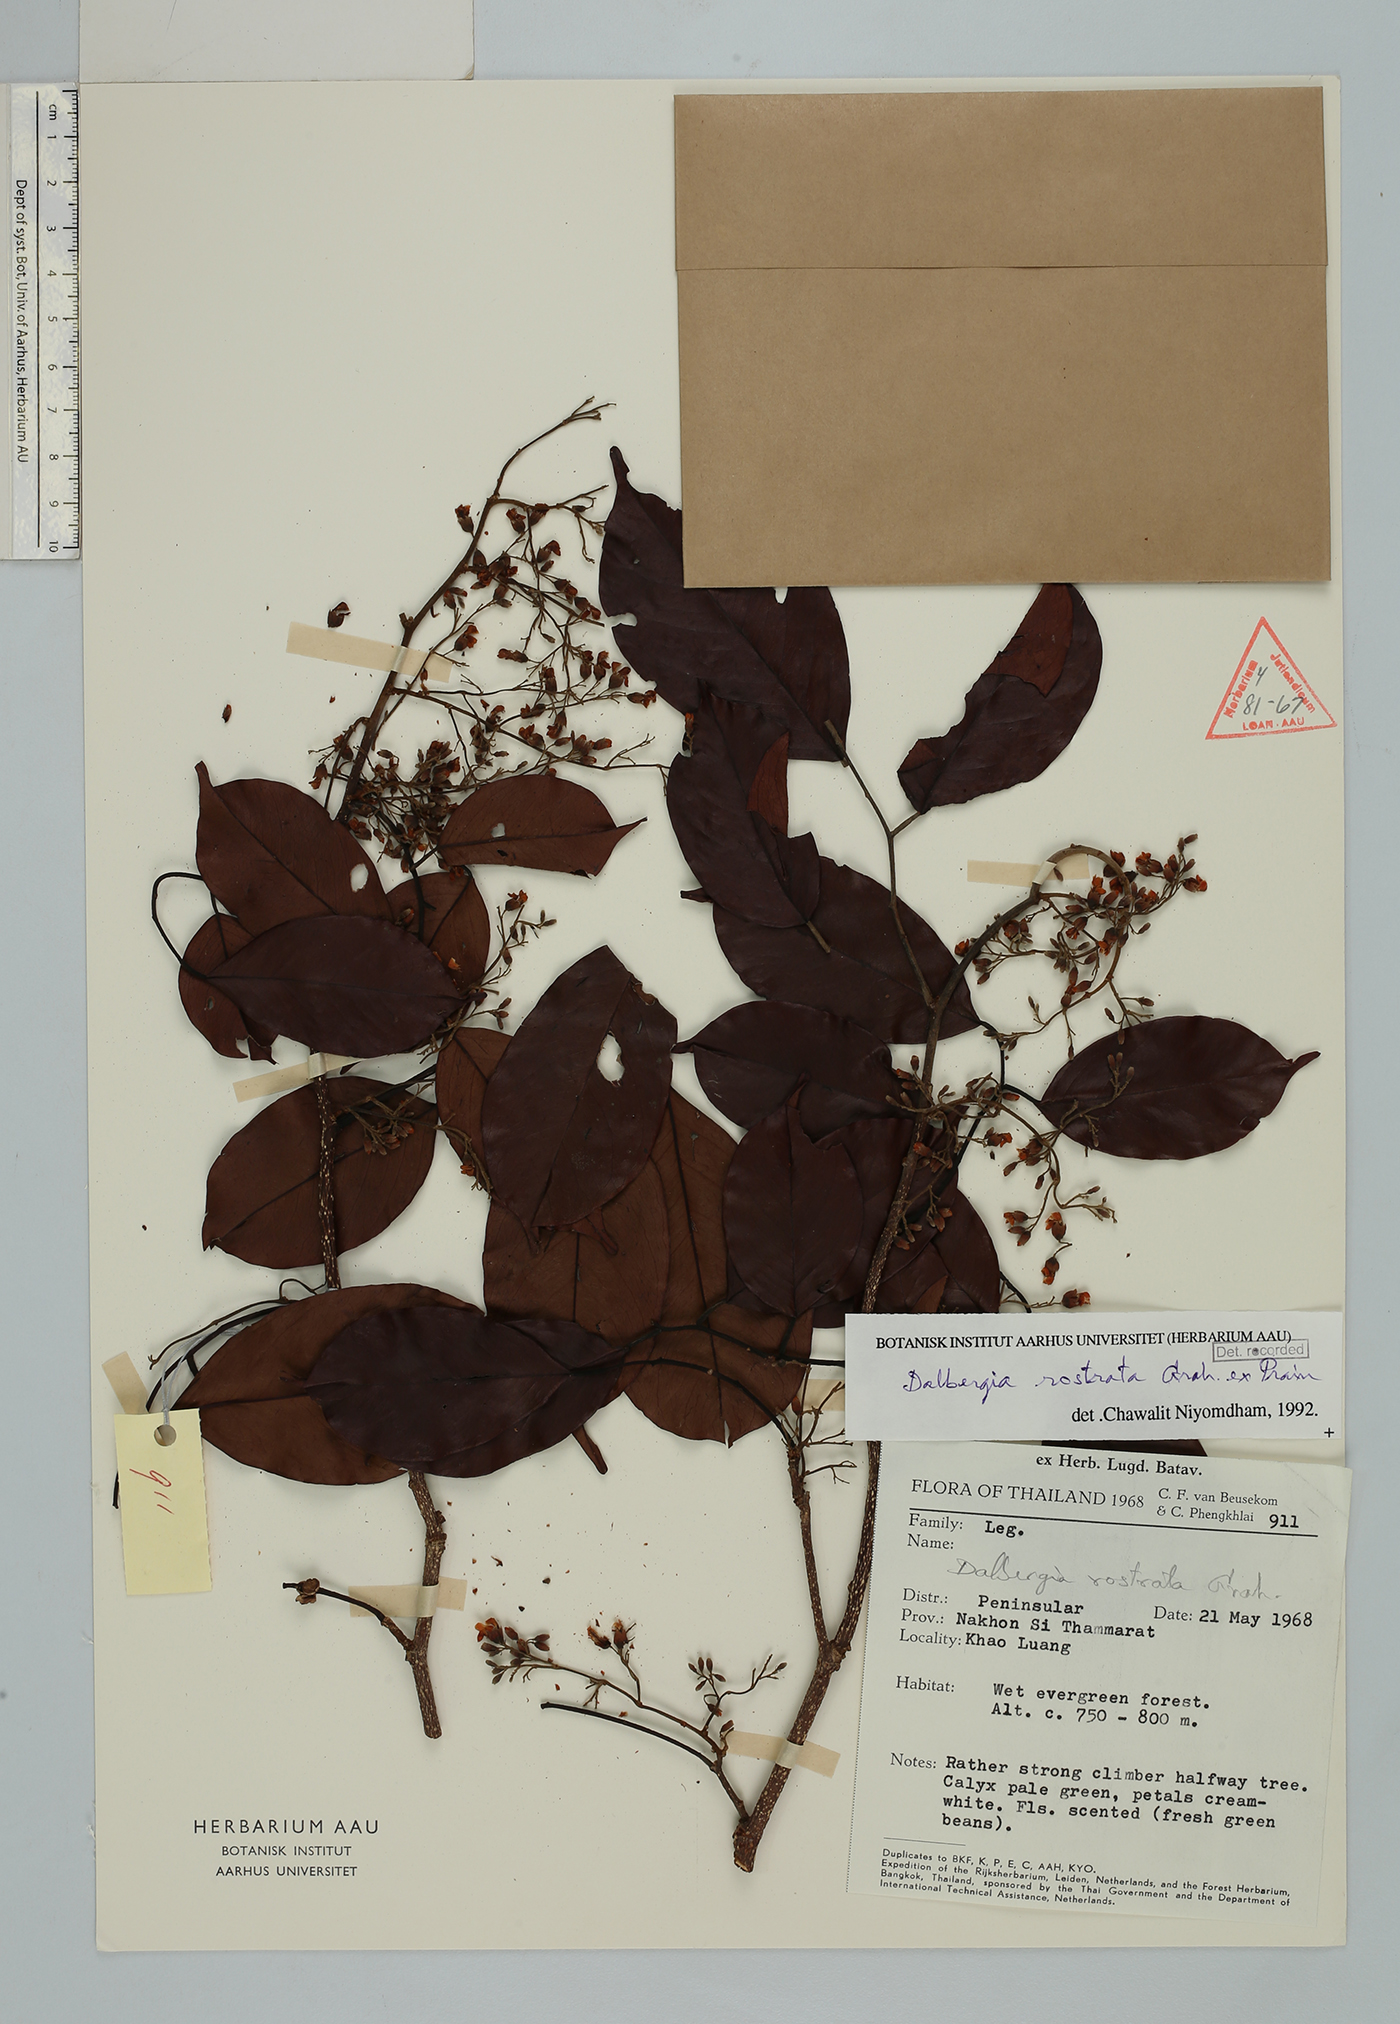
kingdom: Plantae
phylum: Tracheophyta
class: Magnoliopsida
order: Fabales
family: Fabaceae
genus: Dalbergia
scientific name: Dalbergia rostrata
